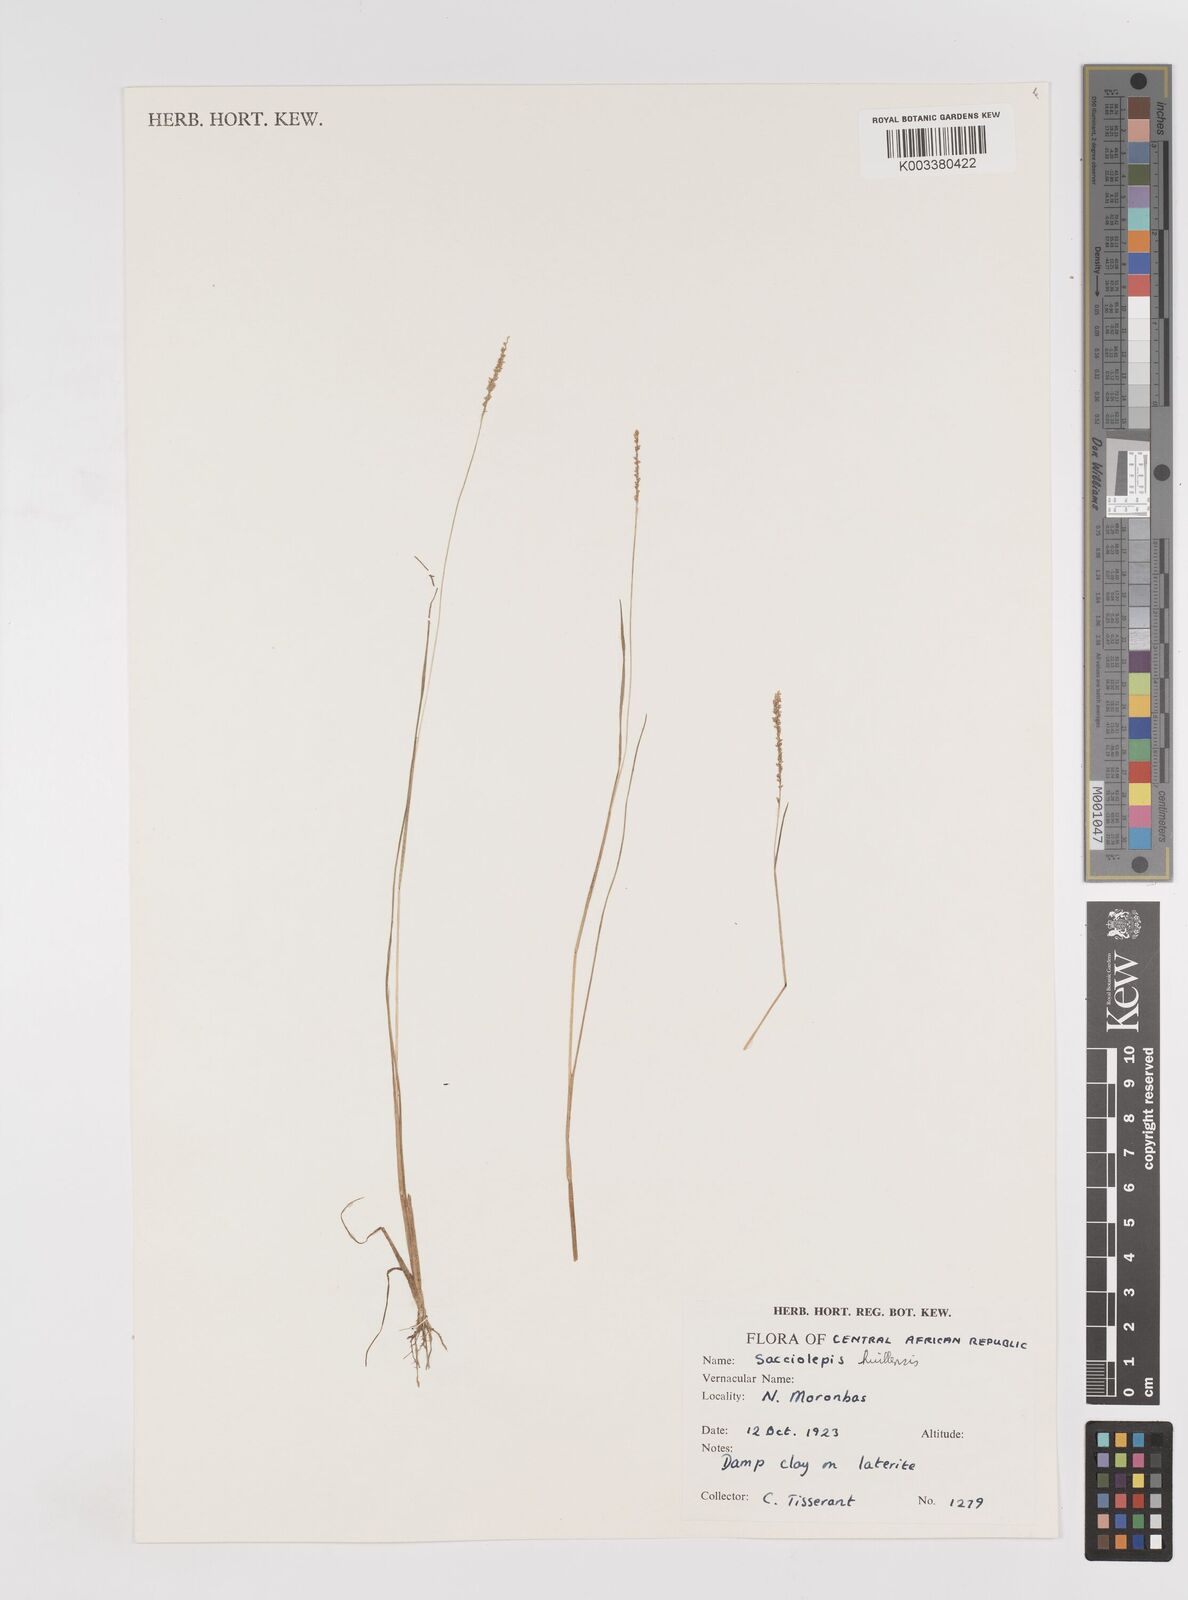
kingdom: Plantae
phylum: Tracheophyta
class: Liliopsida
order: Poales
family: Poaceae
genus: Sacciolepis
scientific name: Sacciolepis myosuroides
